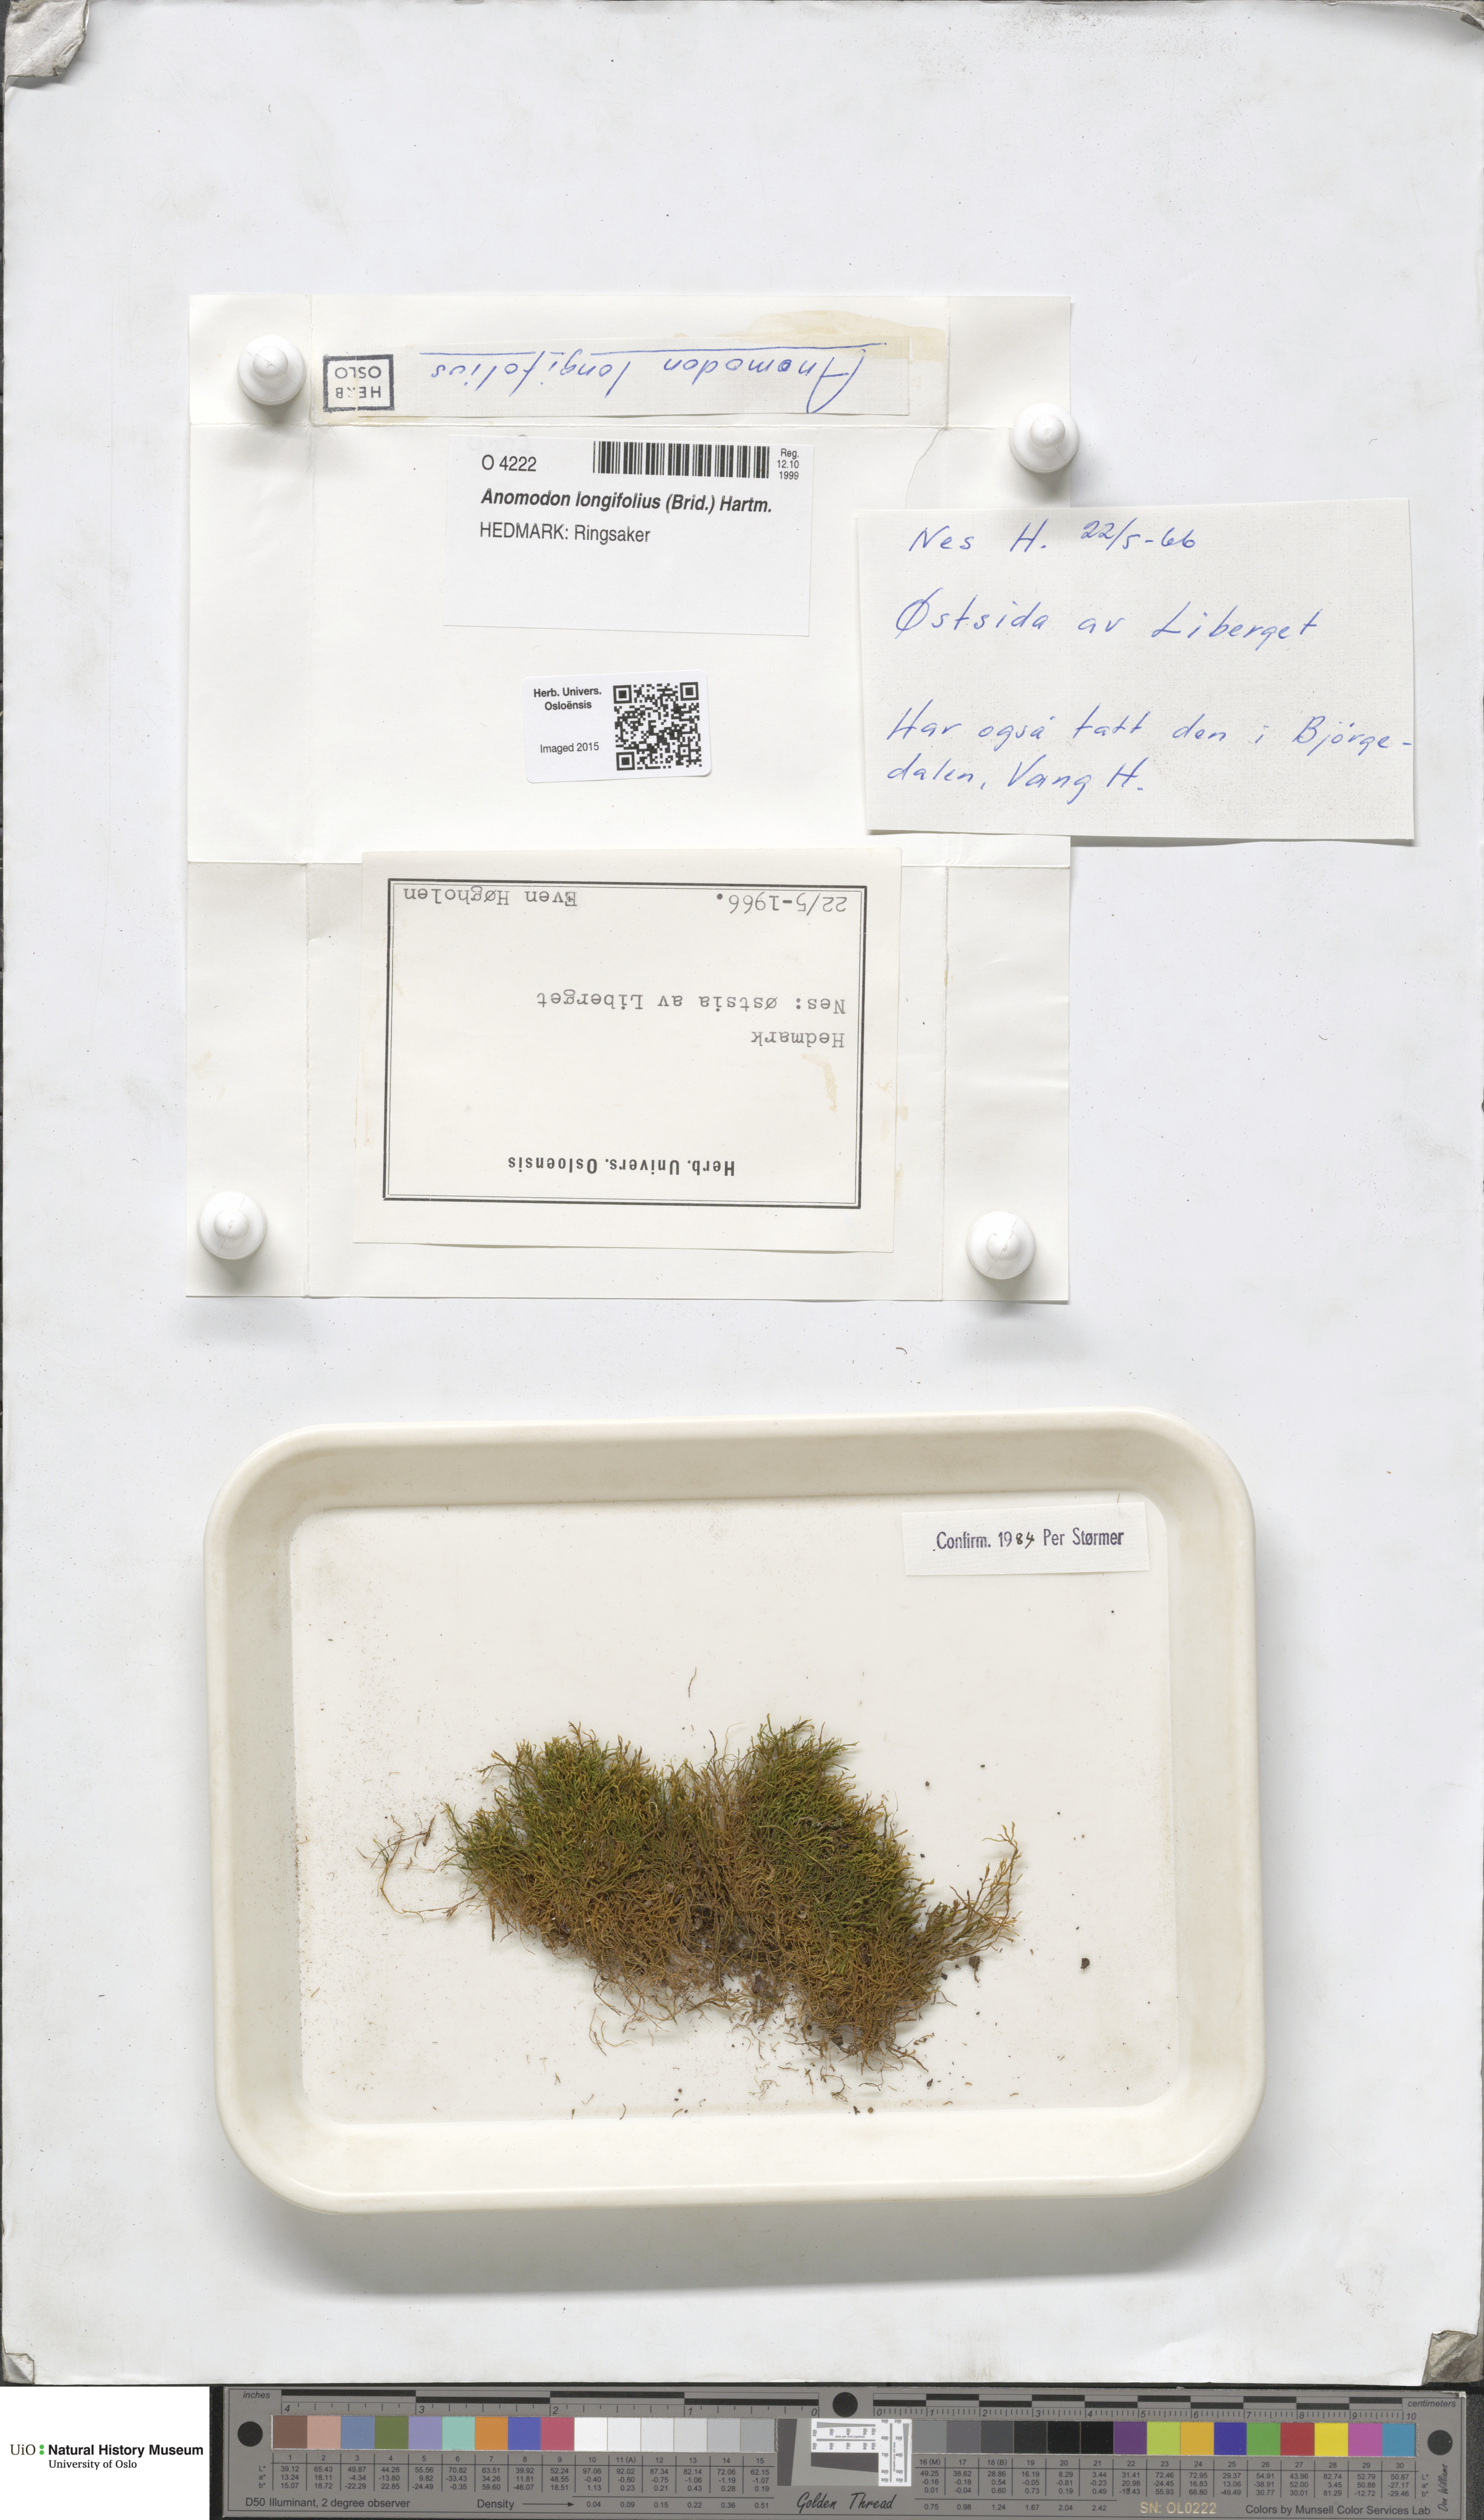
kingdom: Plantae
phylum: Bryophyta
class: Bryopsida
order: Hypnales
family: Anomodontaceae
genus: Anomodontella
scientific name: Anomodontella longifolia
